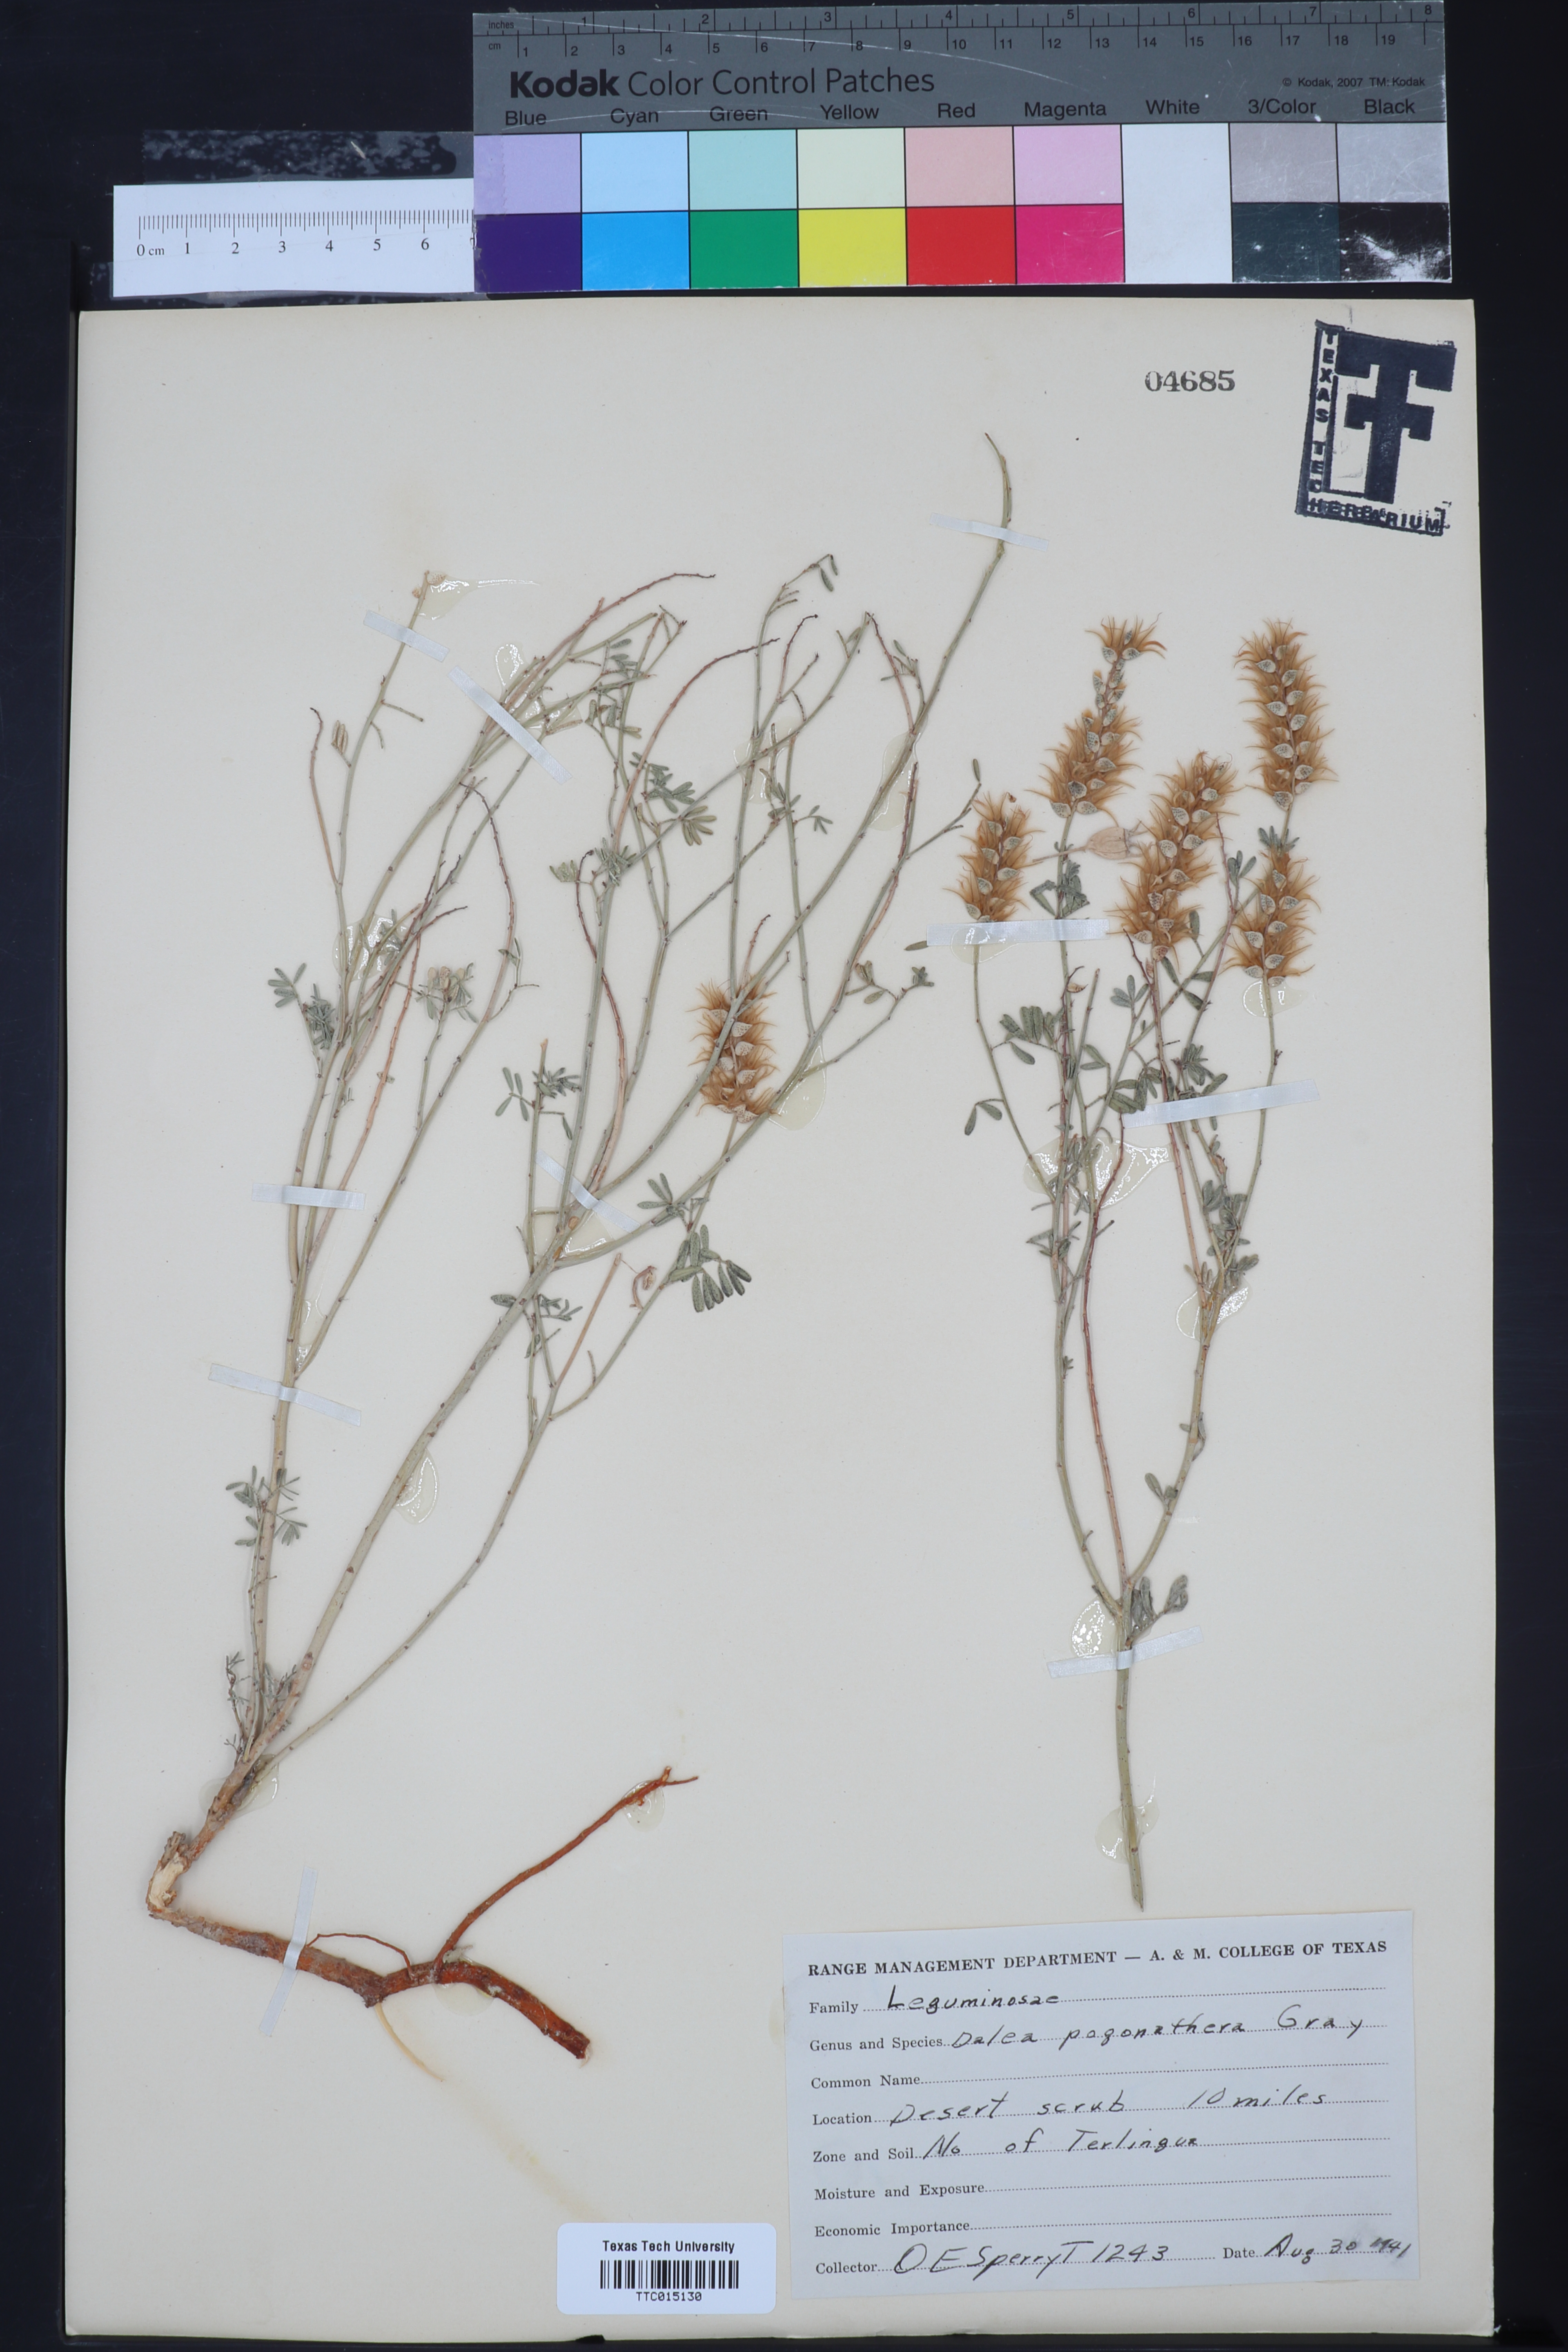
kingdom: Plantae
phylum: Tracheophyta
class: Magnoliopsida
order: Fabales
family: Fabaceae
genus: Dalea
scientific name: Dalea pogonathera
